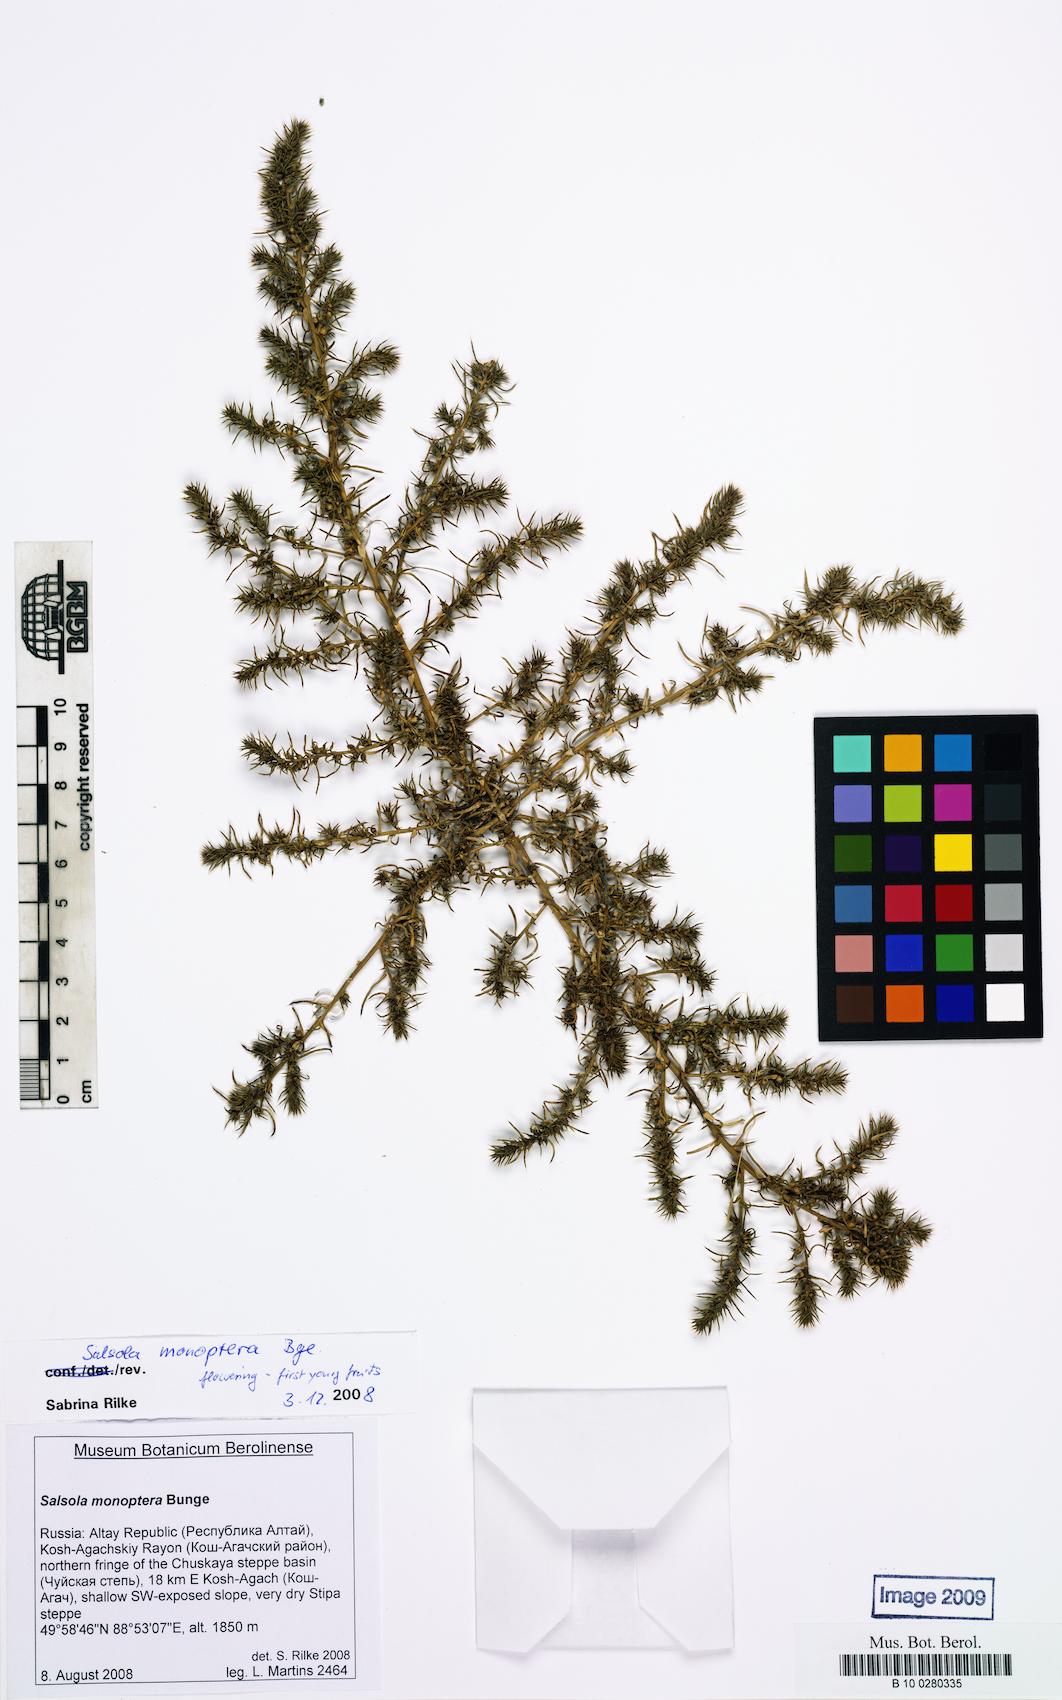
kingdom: Plantae
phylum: Tracheophyta
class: Magnoliopsida
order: Caryophyllales
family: Amaranthaceae
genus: Salsola
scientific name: Salsola monoptera
